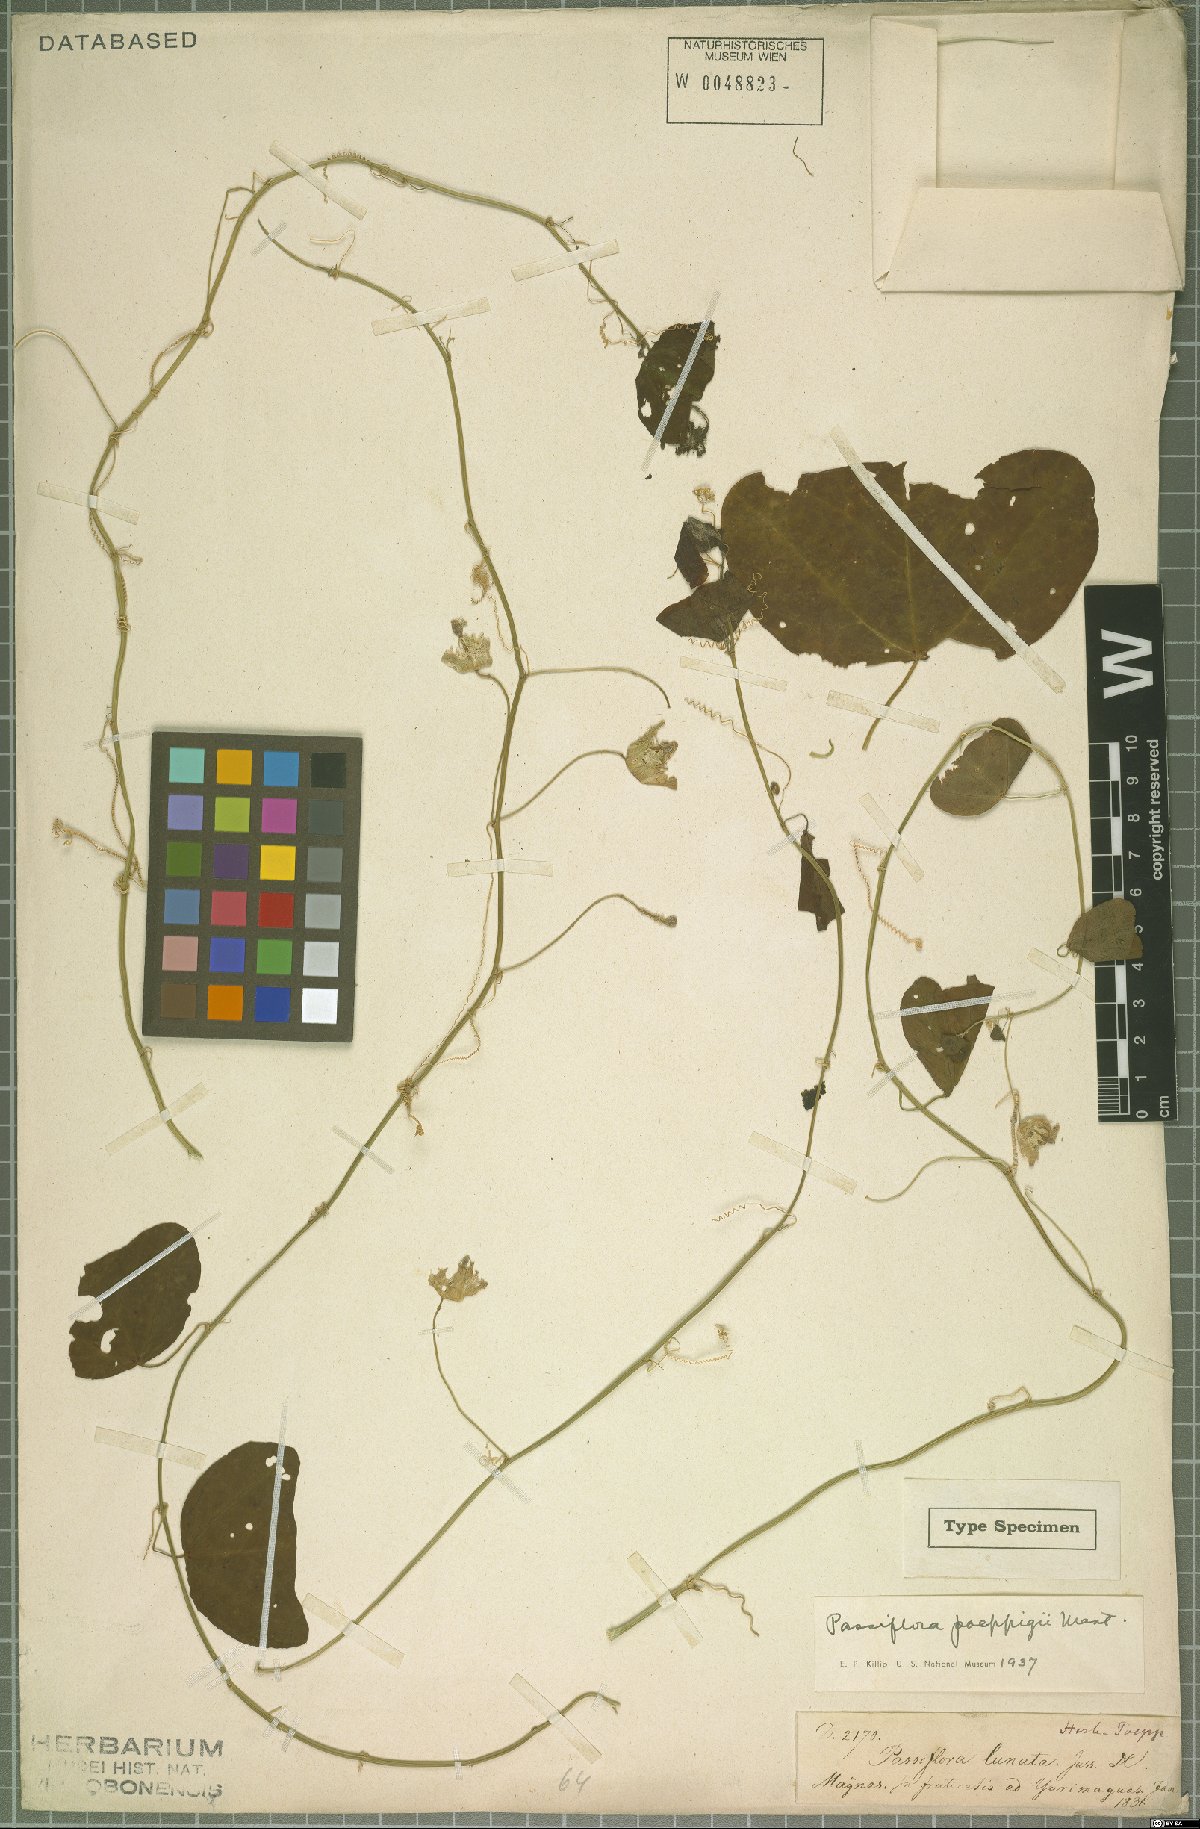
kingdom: Plantae
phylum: Tracheophyta
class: Magnoliopsida
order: Malpighiales
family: Passifloraceae
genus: Passiflora
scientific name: Passiflora poeppigii
